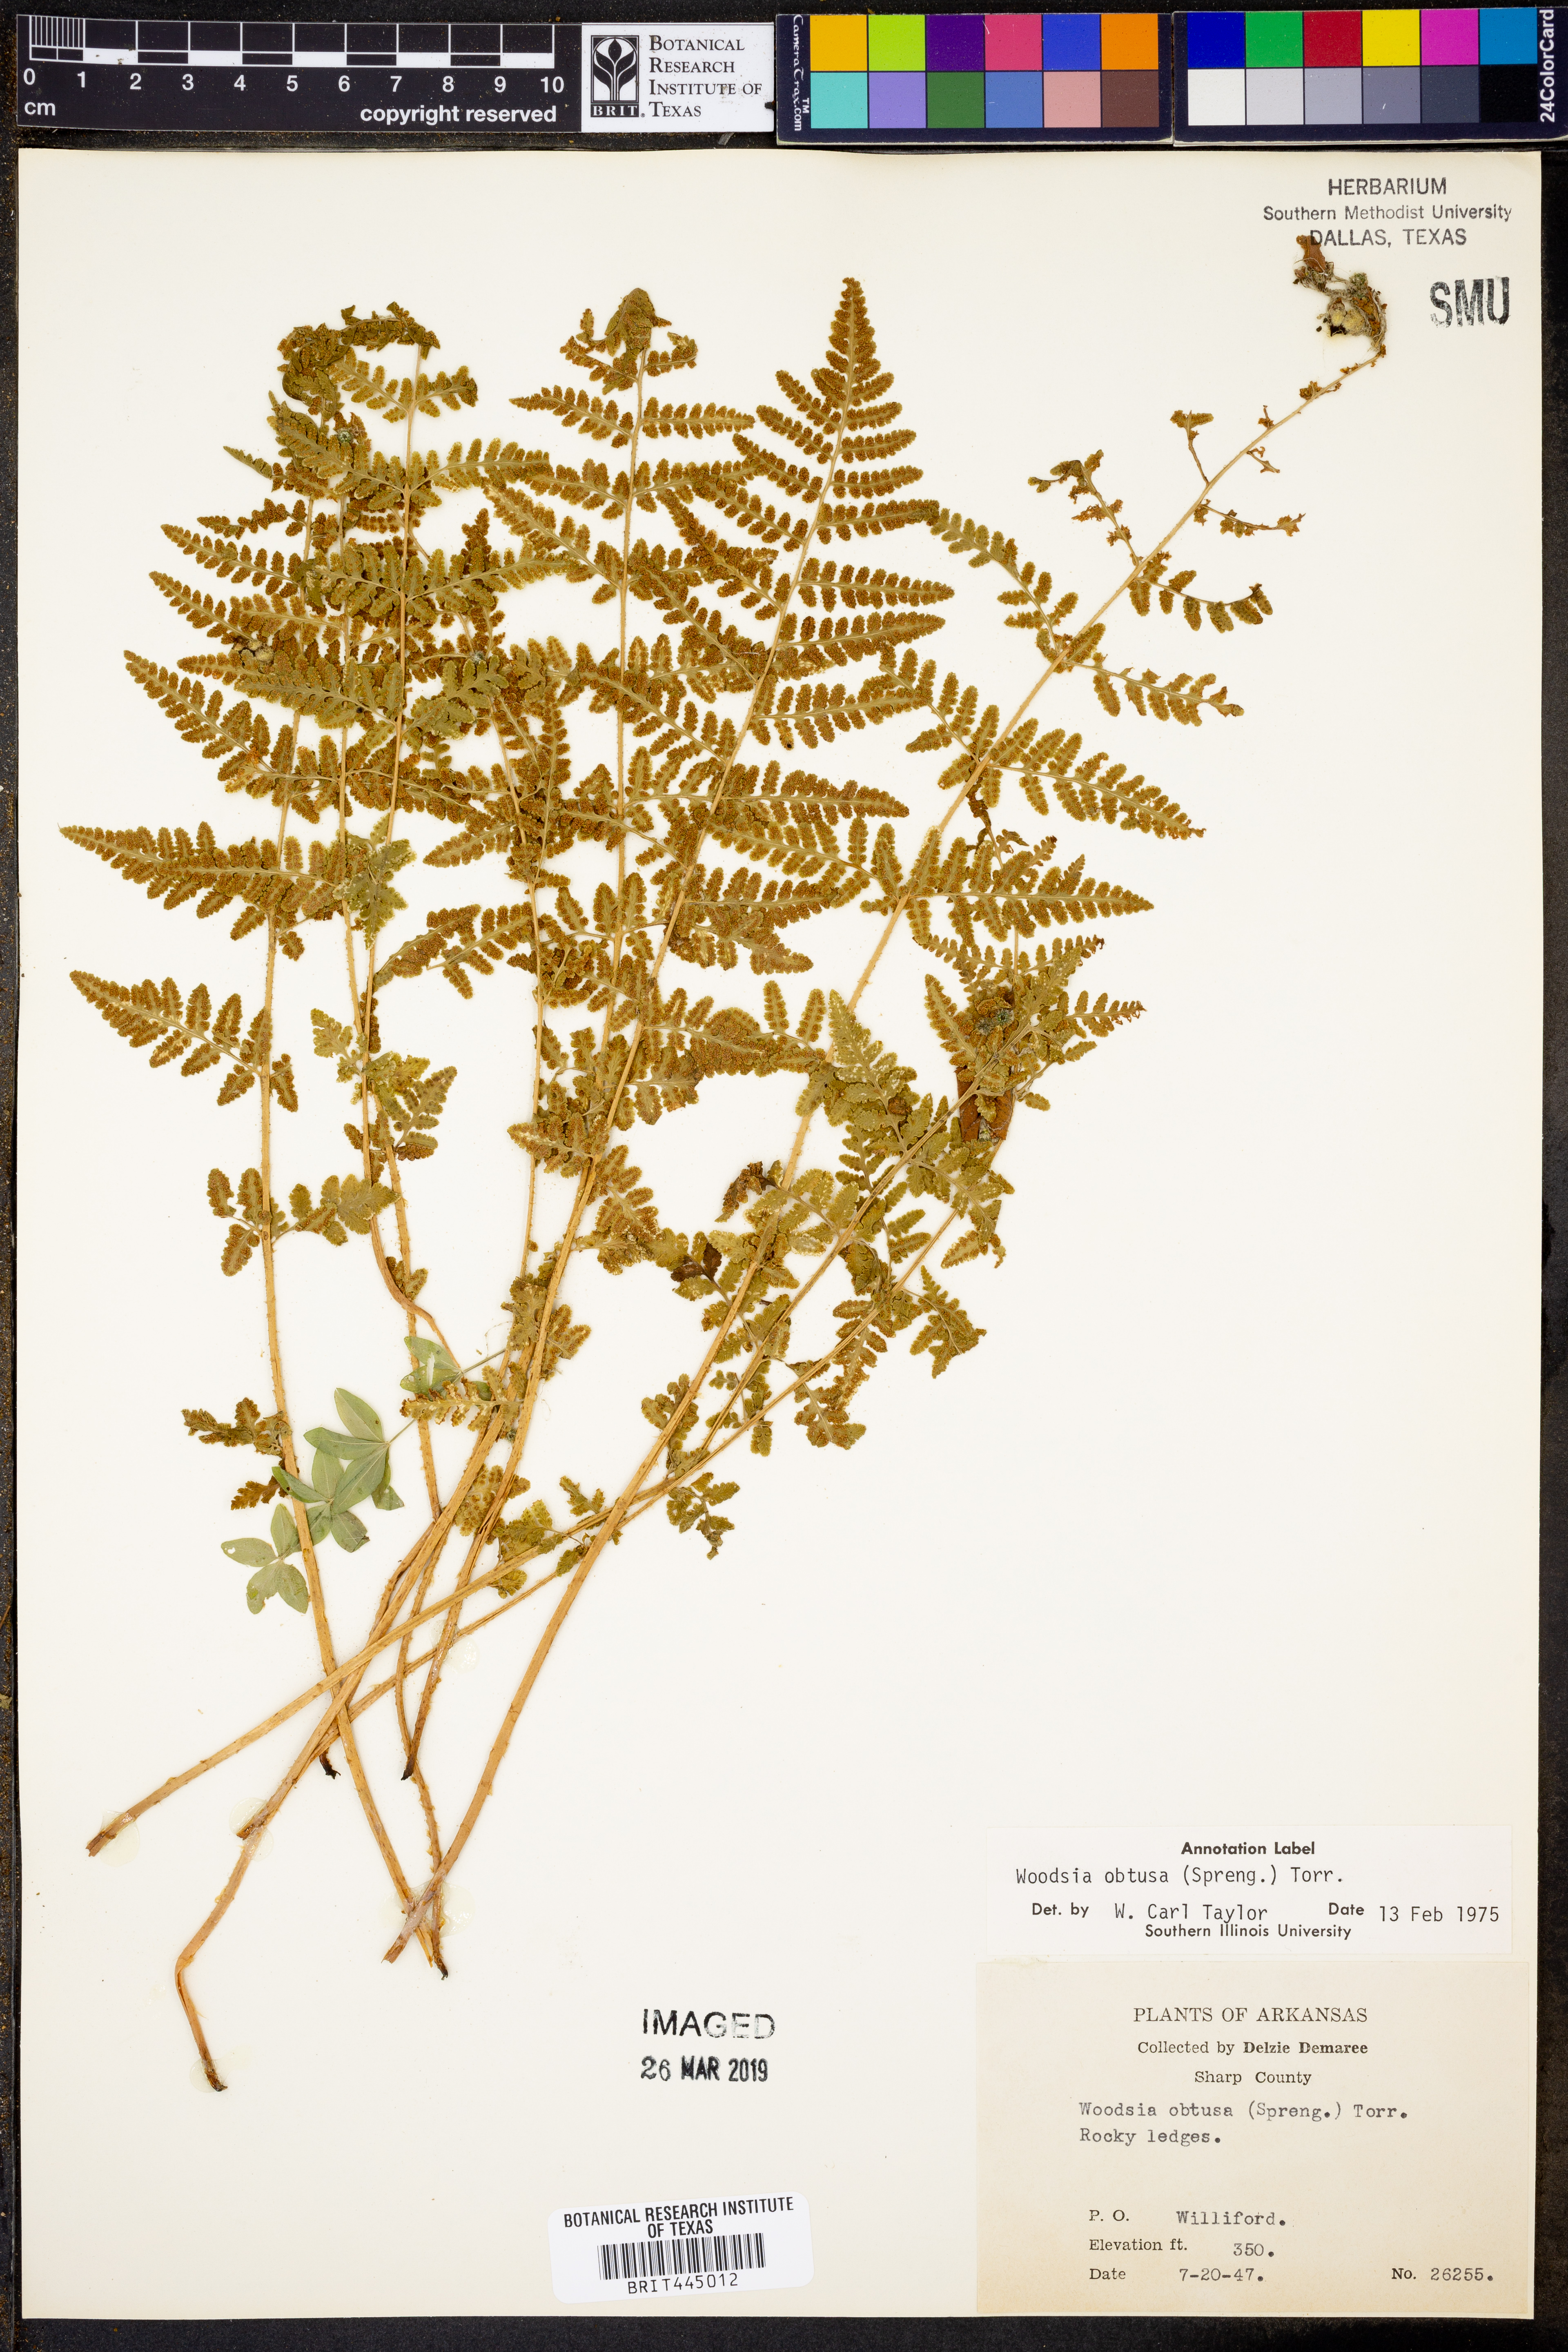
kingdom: Plantae
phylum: Tracheophyta
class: Polypodiopsida
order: Polypodiales
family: Woodsiaceae
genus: Physematium
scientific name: Physematium obtusum
